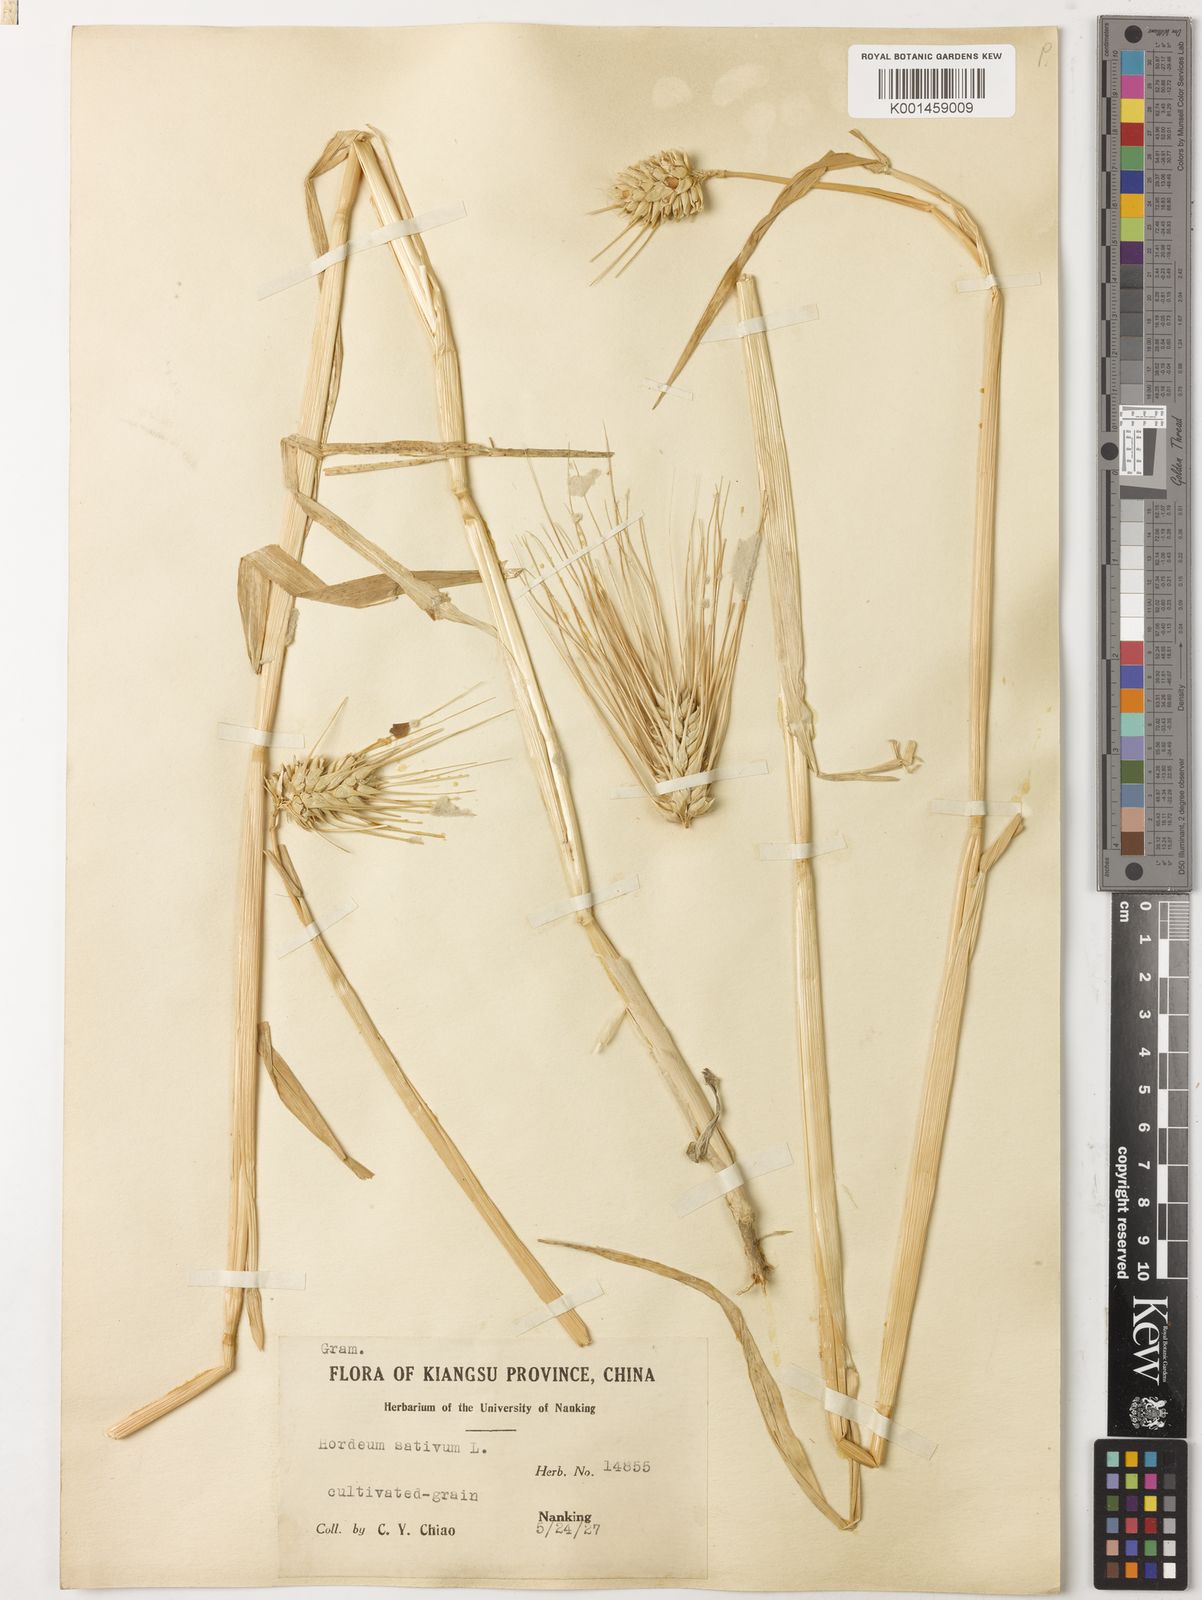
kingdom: Plantae
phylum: Tracheophyta
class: Liliopsida
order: Poales
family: Poaceae
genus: Hordeum
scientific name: Hordeum vulgare
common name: Common barley
